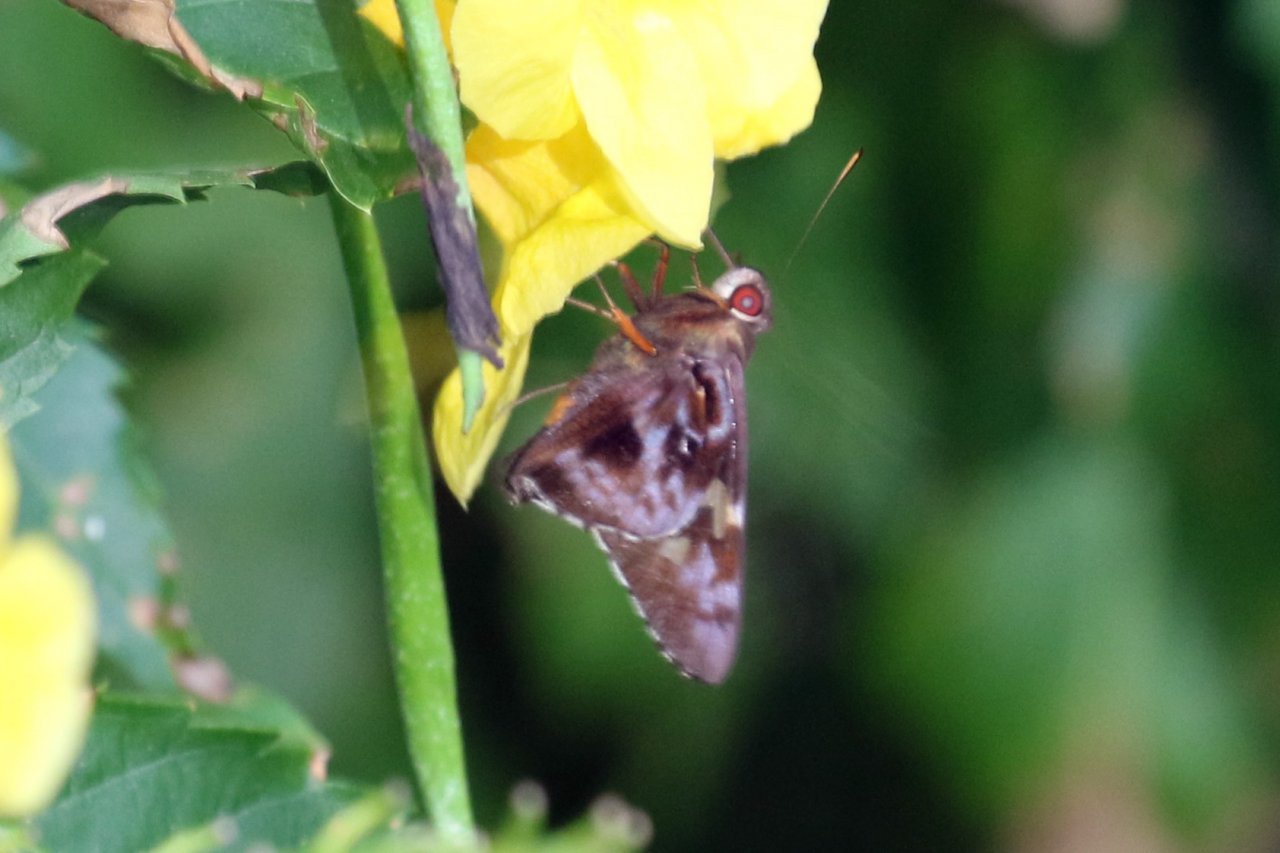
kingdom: Animalia
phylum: Arthropoda
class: Insecta
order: Lepidoptera
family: Hesperiidae
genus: Perichares
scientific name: Perichares philetes
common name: Green-backed Ruby-eye
